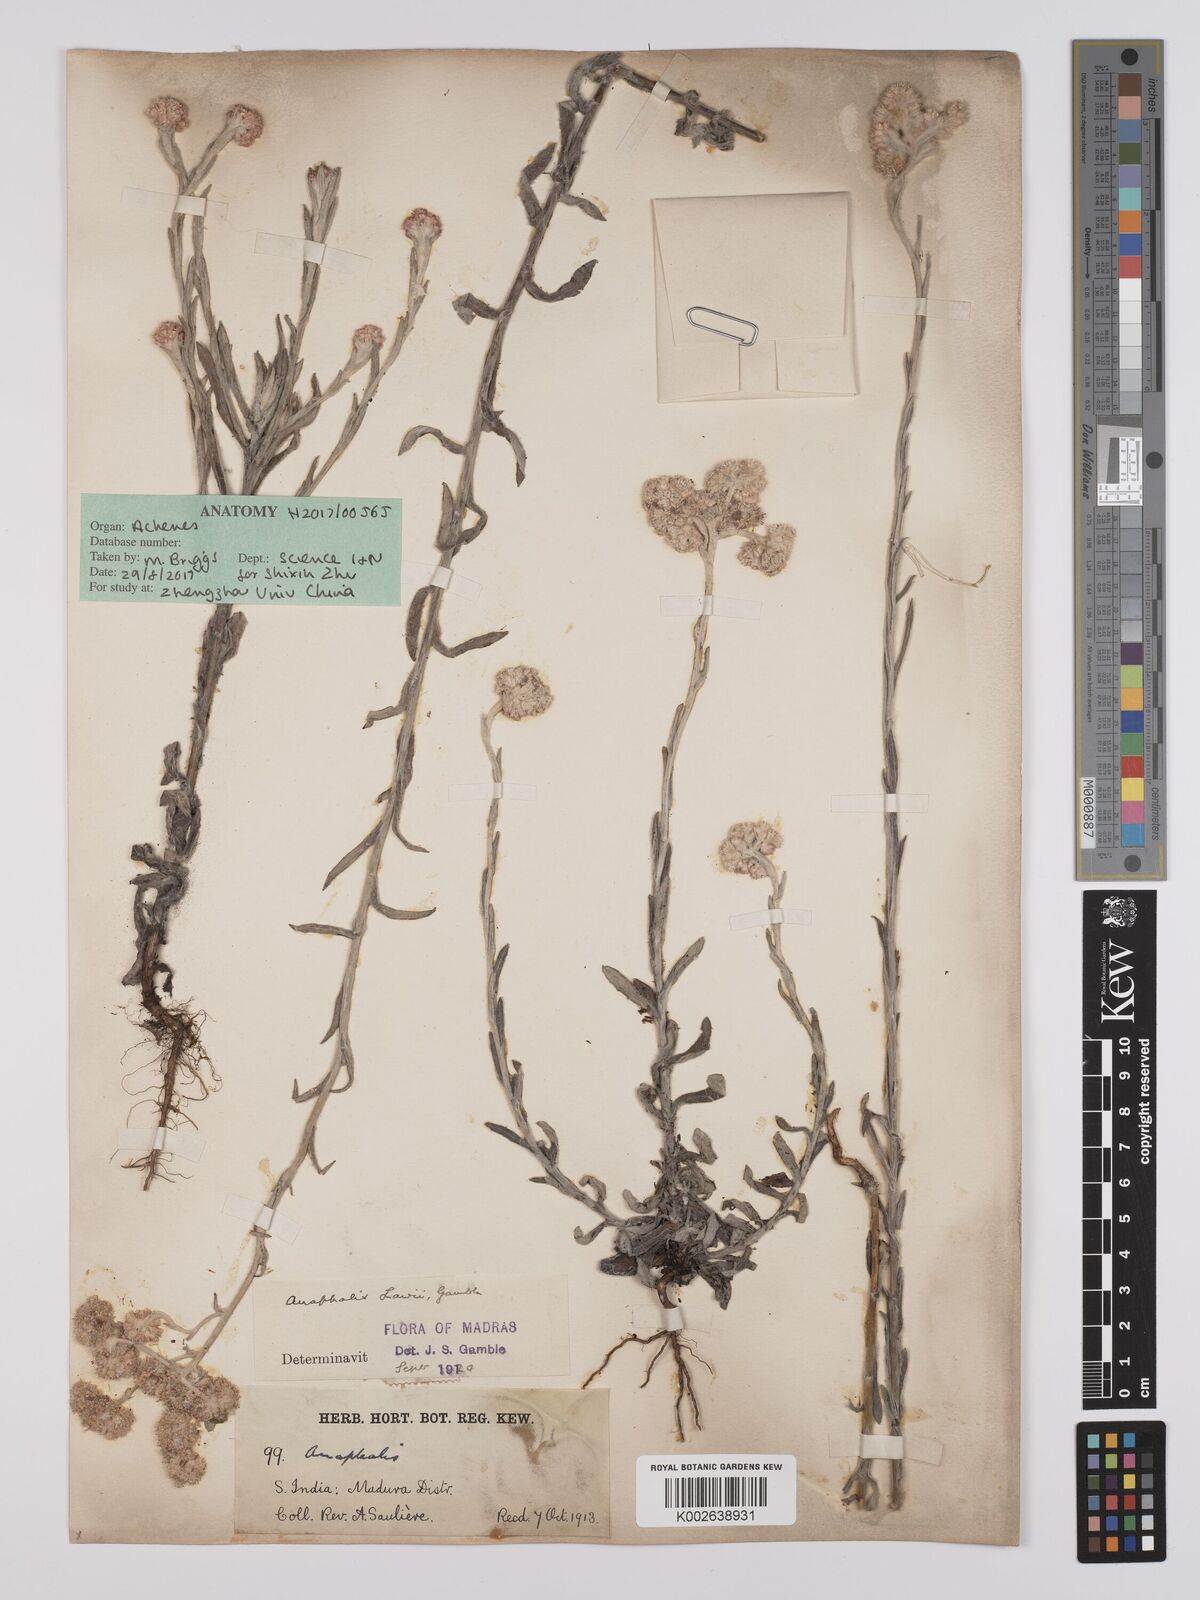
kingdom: Plantae
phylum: Tracheophyta
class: Magnoliopsida
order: Asterales
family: Asteraceae
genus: Anaphalis
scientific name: Anaphalis lawii
